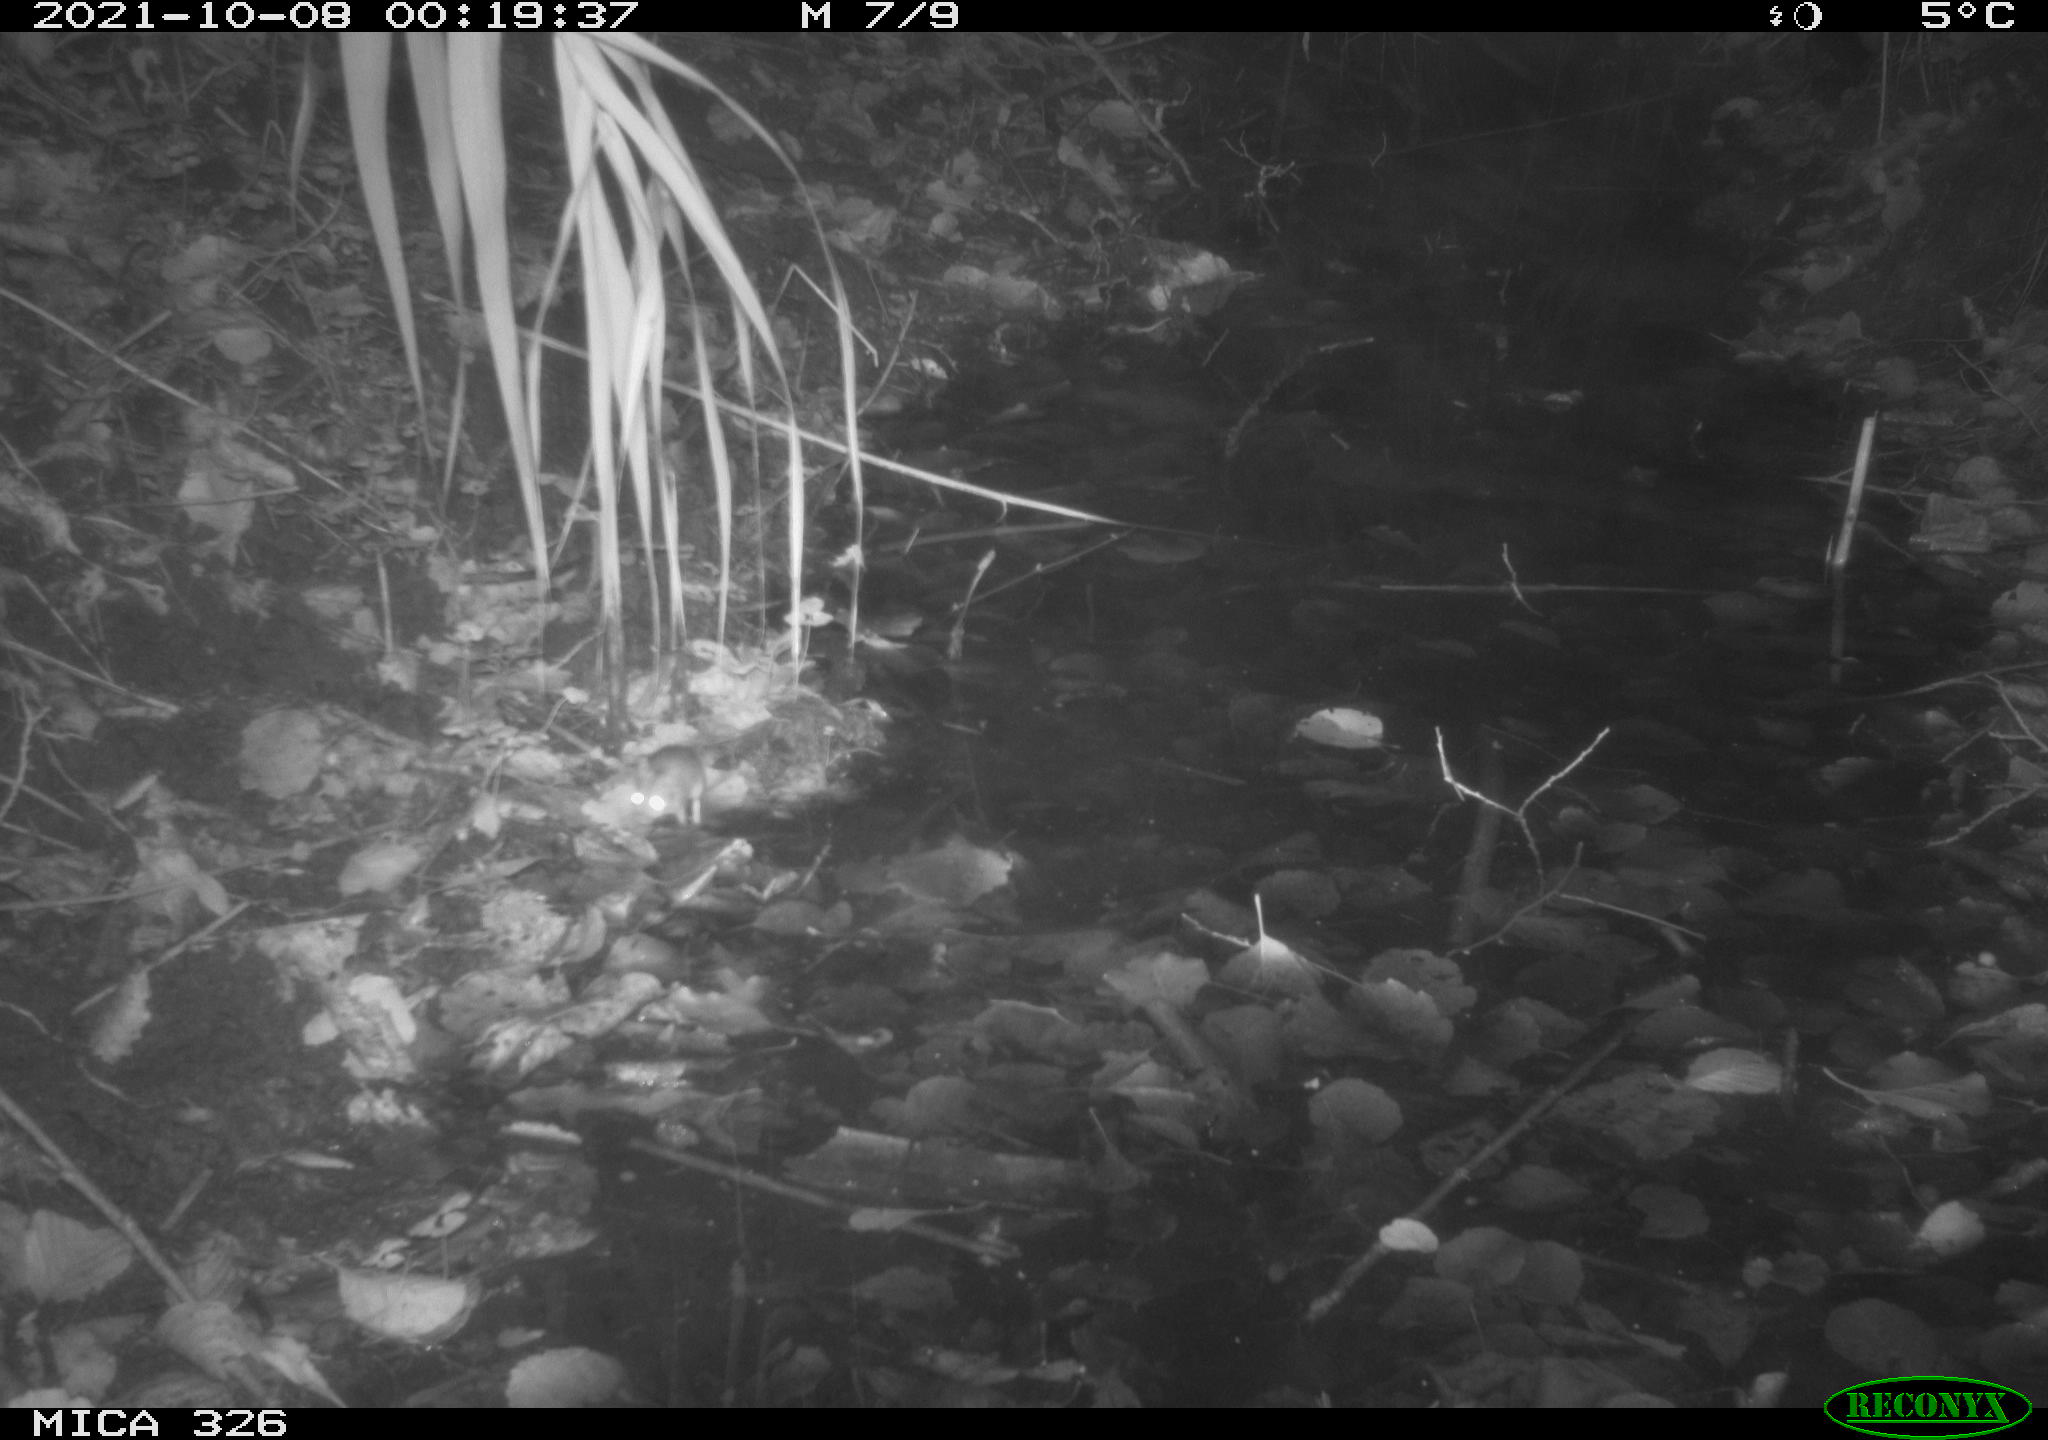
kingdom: Animalia
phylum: Chordata
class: Mammalia
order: Rodentia
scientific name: Rodentia
